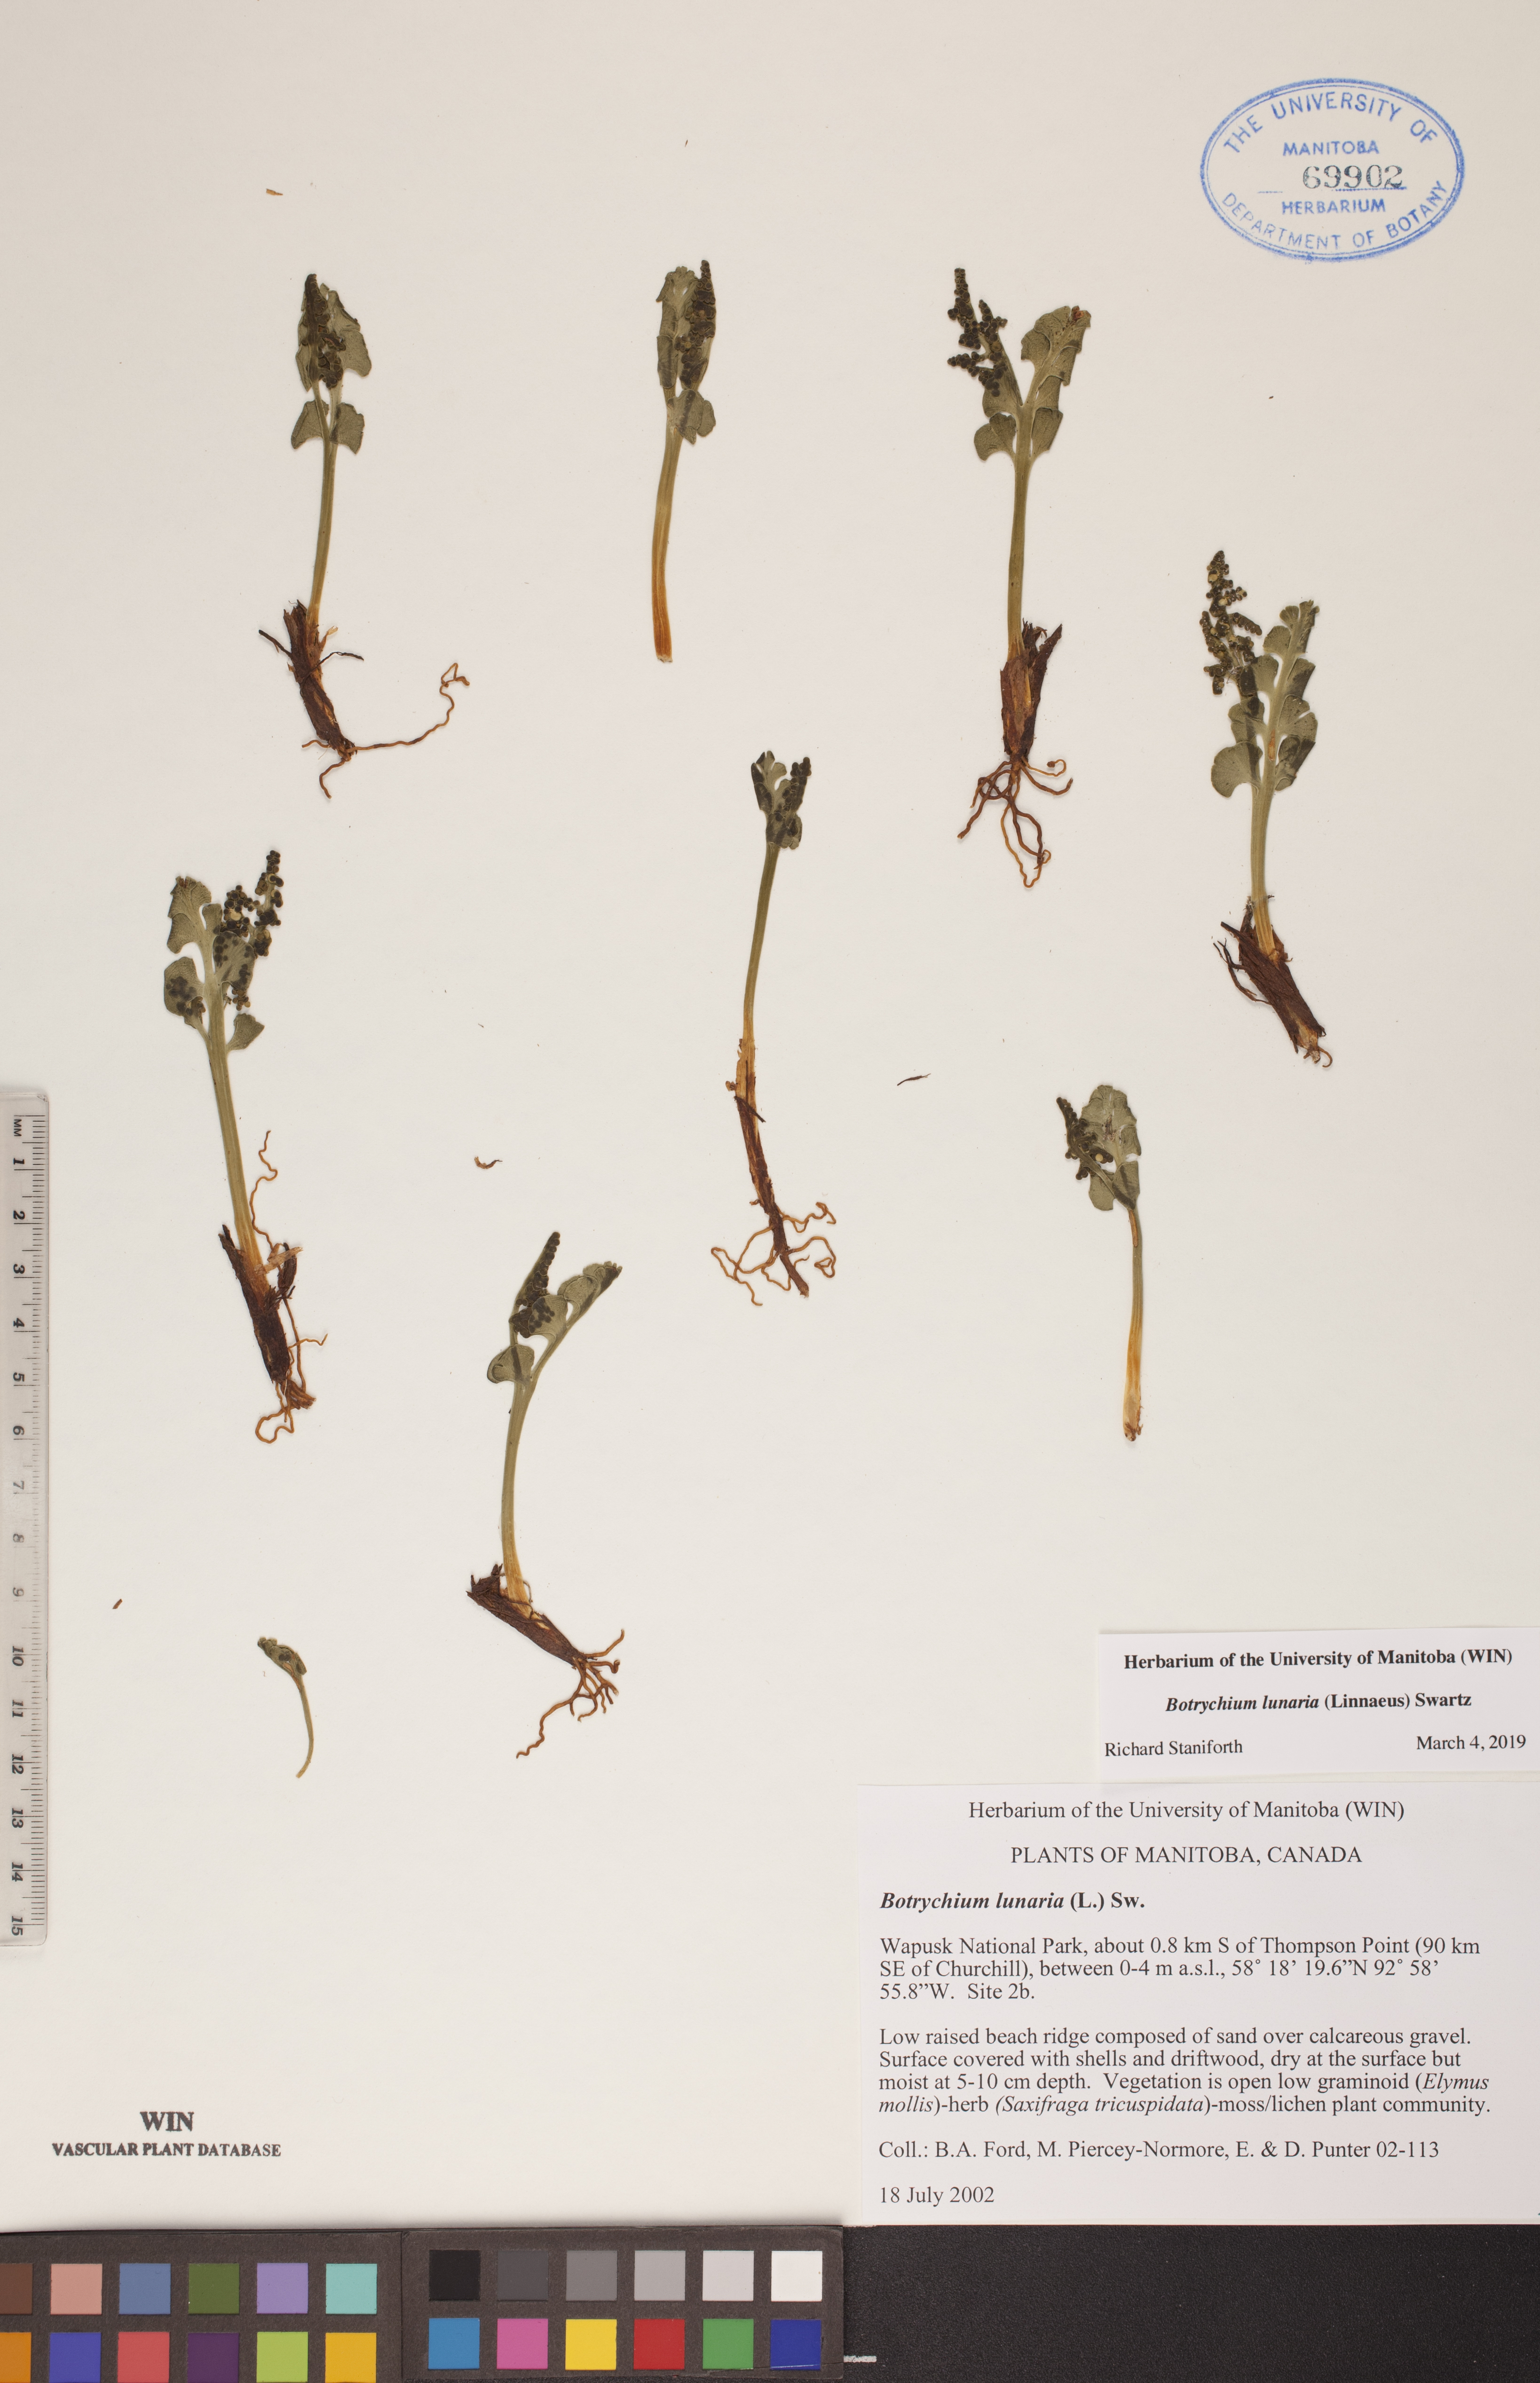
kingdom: Plantae
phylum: Tracheophyta
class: Polypodiopsida
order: Ophioglossales
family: Ophioglossaceae
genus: Botrychium
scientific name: Botrychium lunaria
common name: Moonwort
